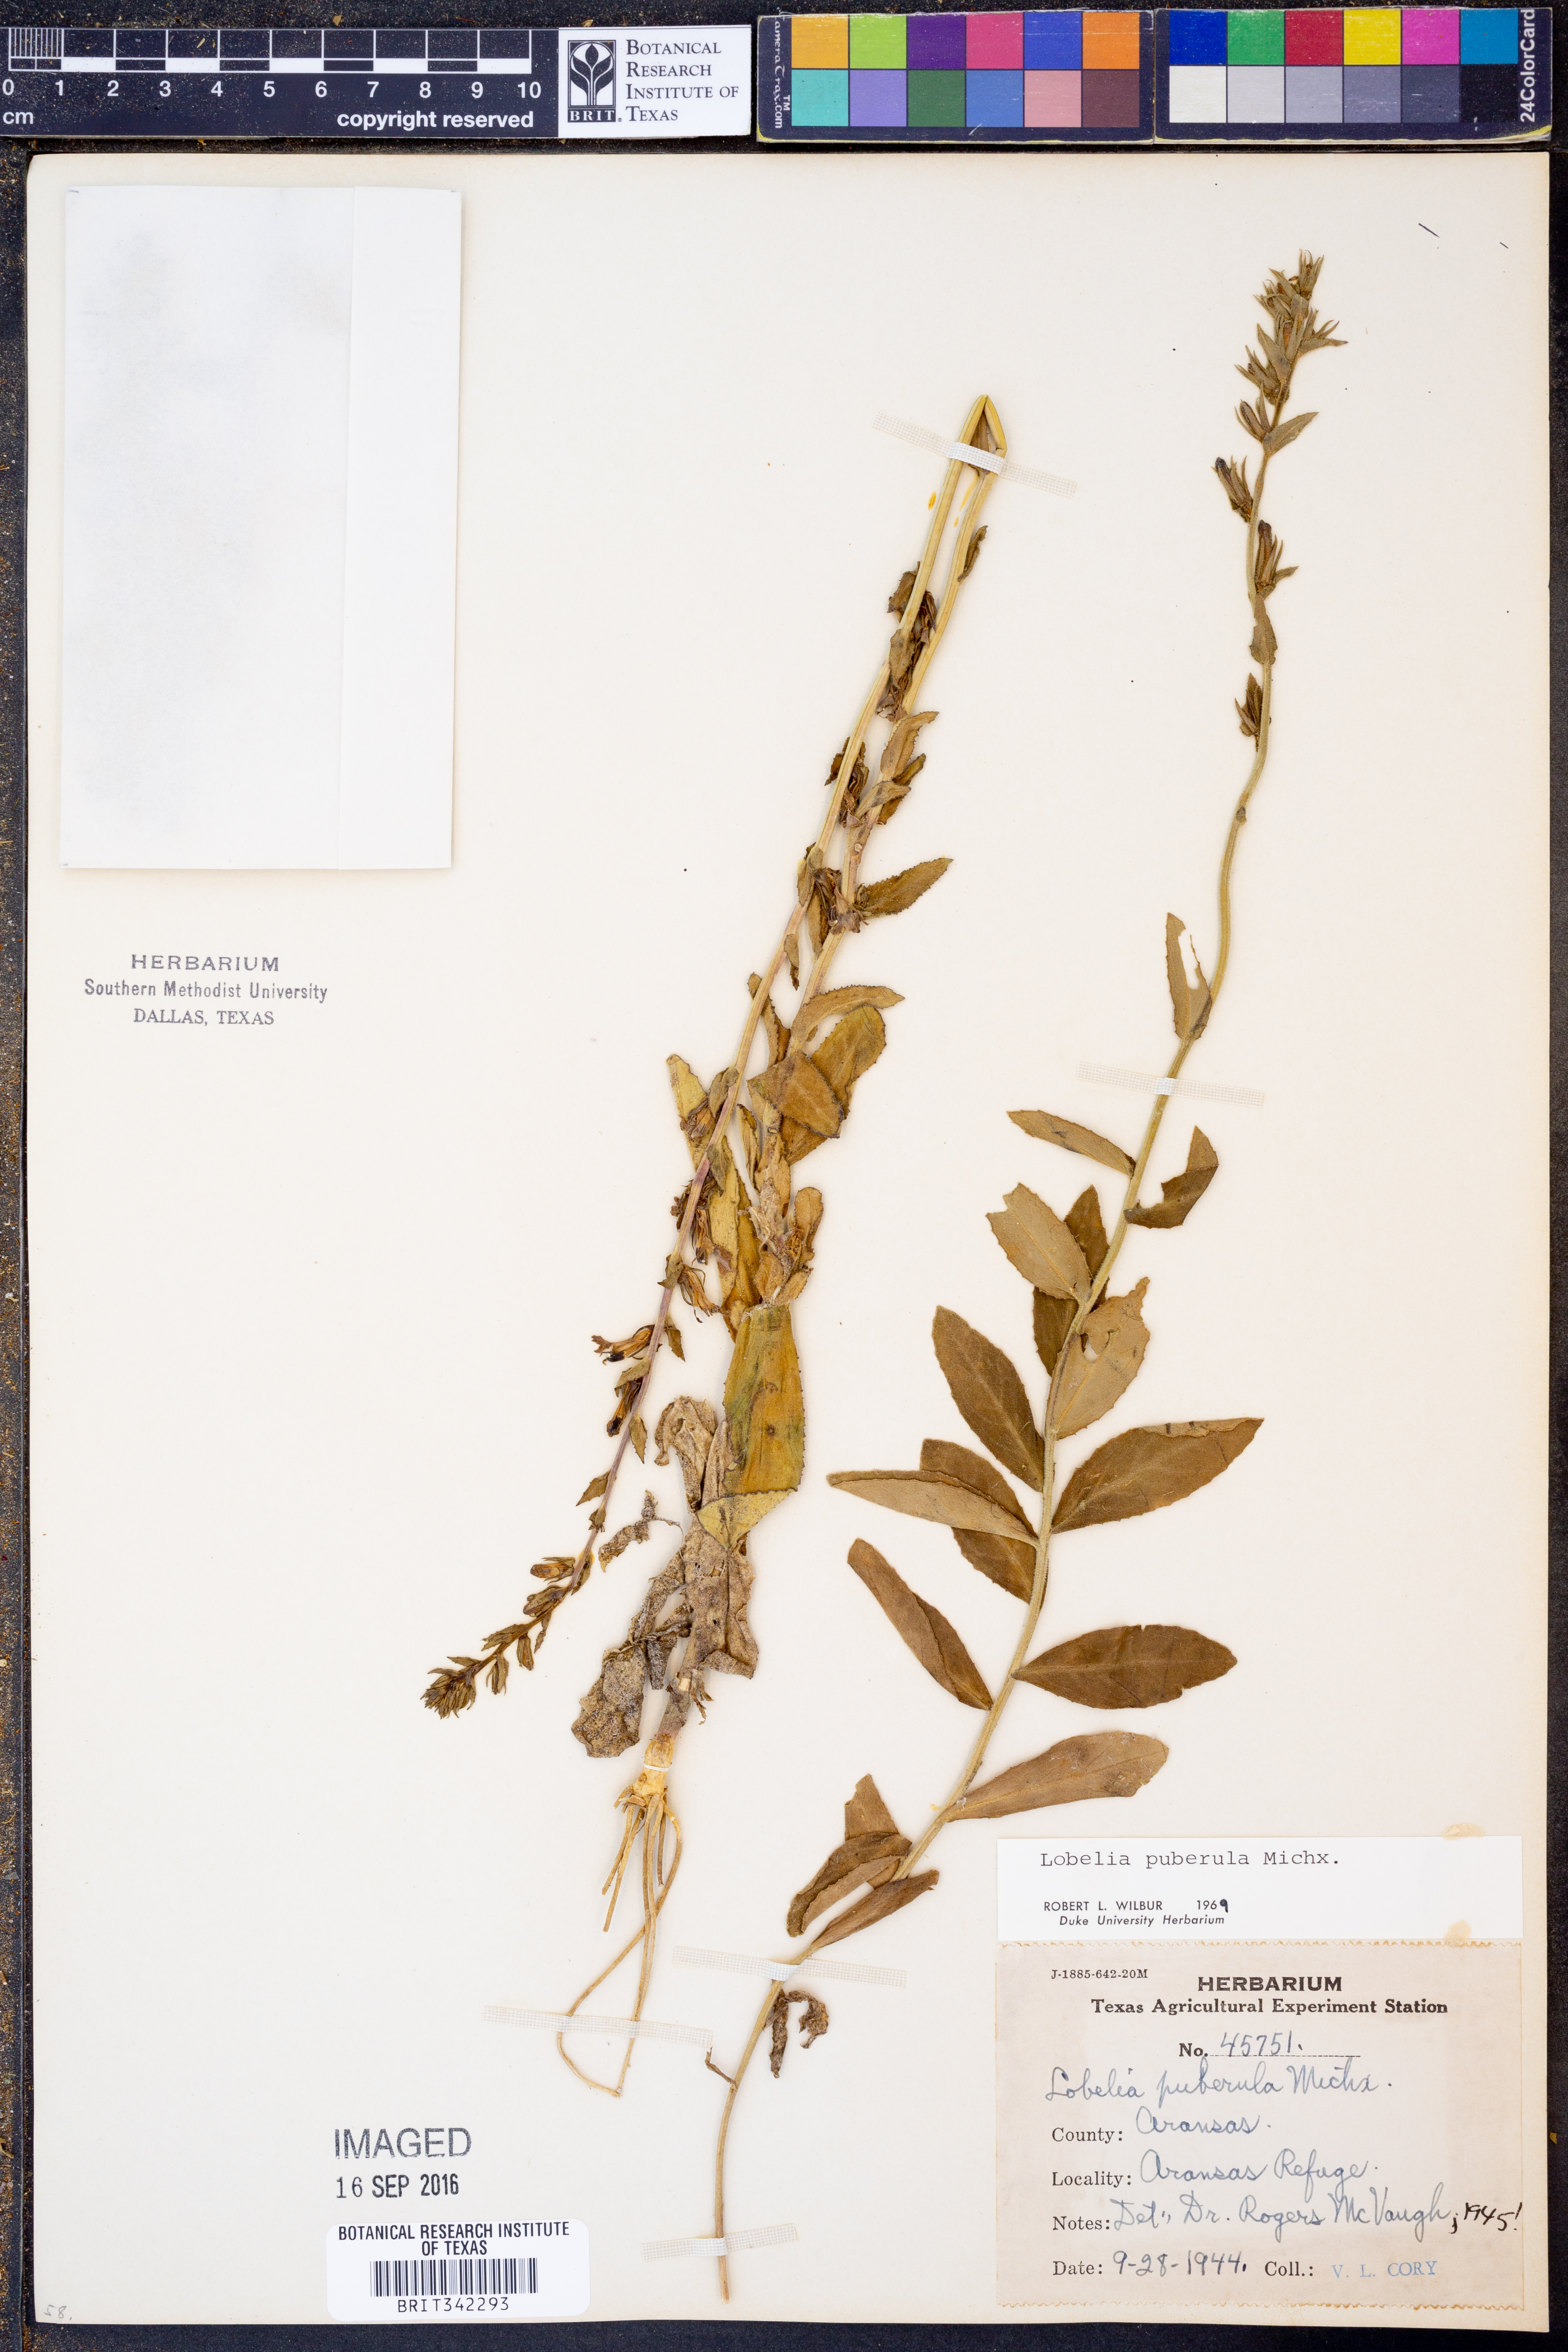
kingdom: Plantae
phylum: Tracheophyta
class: Magnoliopsida
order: Asterales
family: Campanulaceae
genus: Lobelia
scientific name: Lobelia puberula
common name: Purple dewdrop
